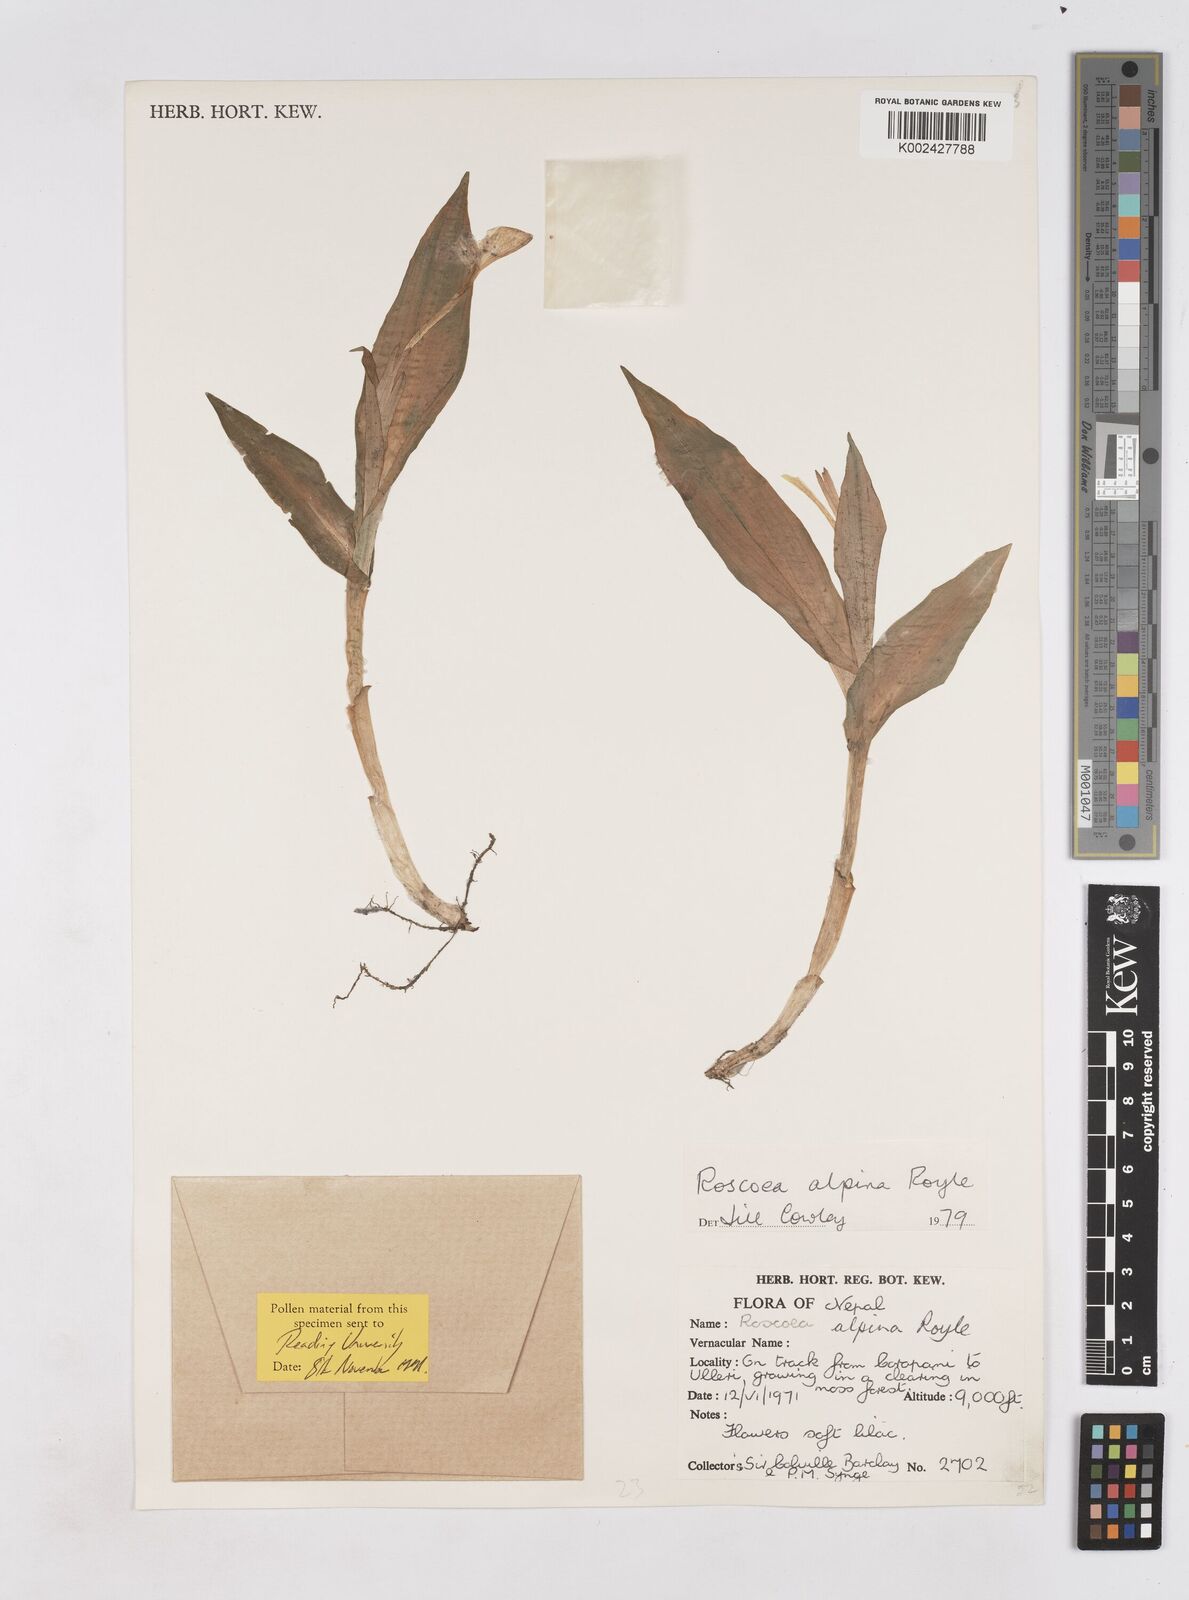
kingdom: Plantae
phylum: Tracheophyta
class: Liliopsida
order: Zingiberales
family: Zingiberaceae
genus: Roscoea
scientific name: Roscoea alpina
